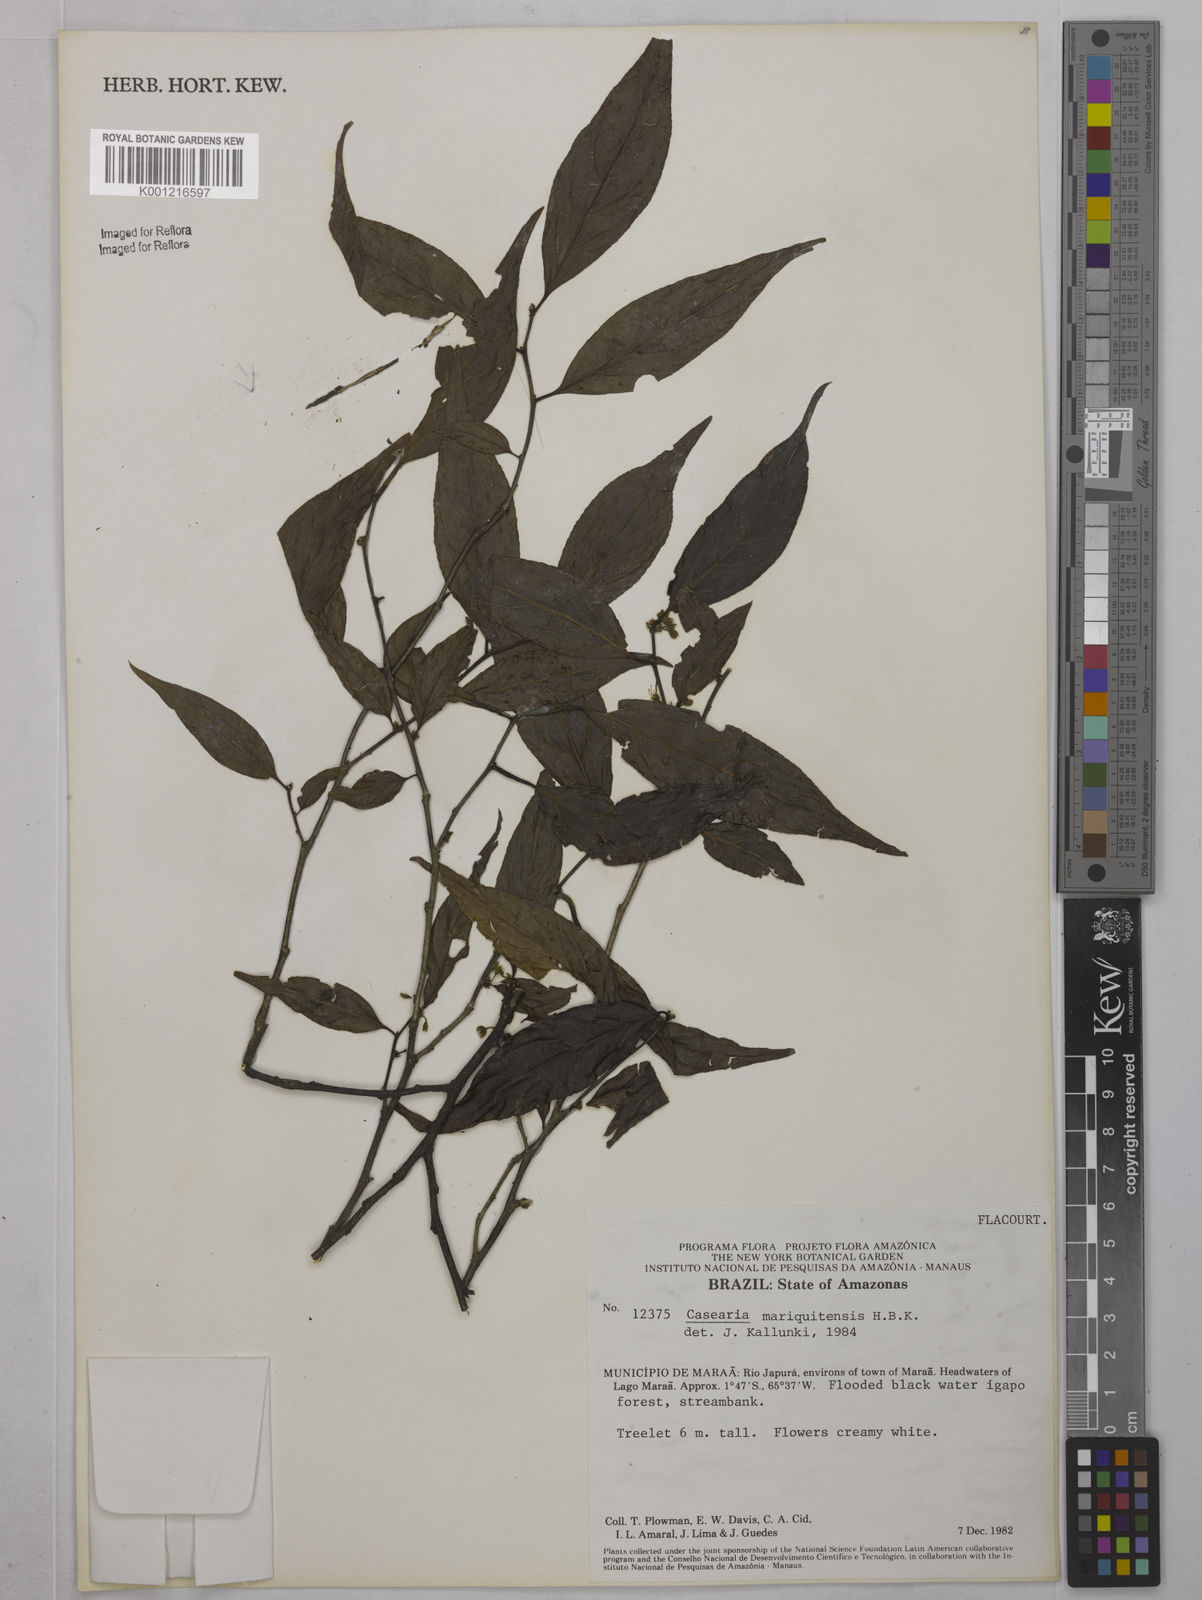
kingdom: Plantae
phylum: Tracheophyta
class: Magnoliopsida
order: Malpighiales
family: Salicaceae
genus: Casearia
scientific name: Casearia mariquitensis
